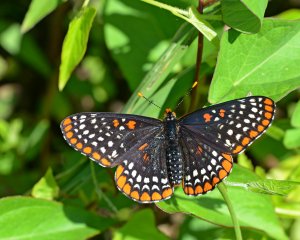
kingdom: Animalia
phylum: Arthropoda
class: Insecta
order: Lepidoptera
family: Nymphalidae
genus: Euphydryas
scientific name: Euphydryas phaeton
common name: Baltimore Checkerspot
